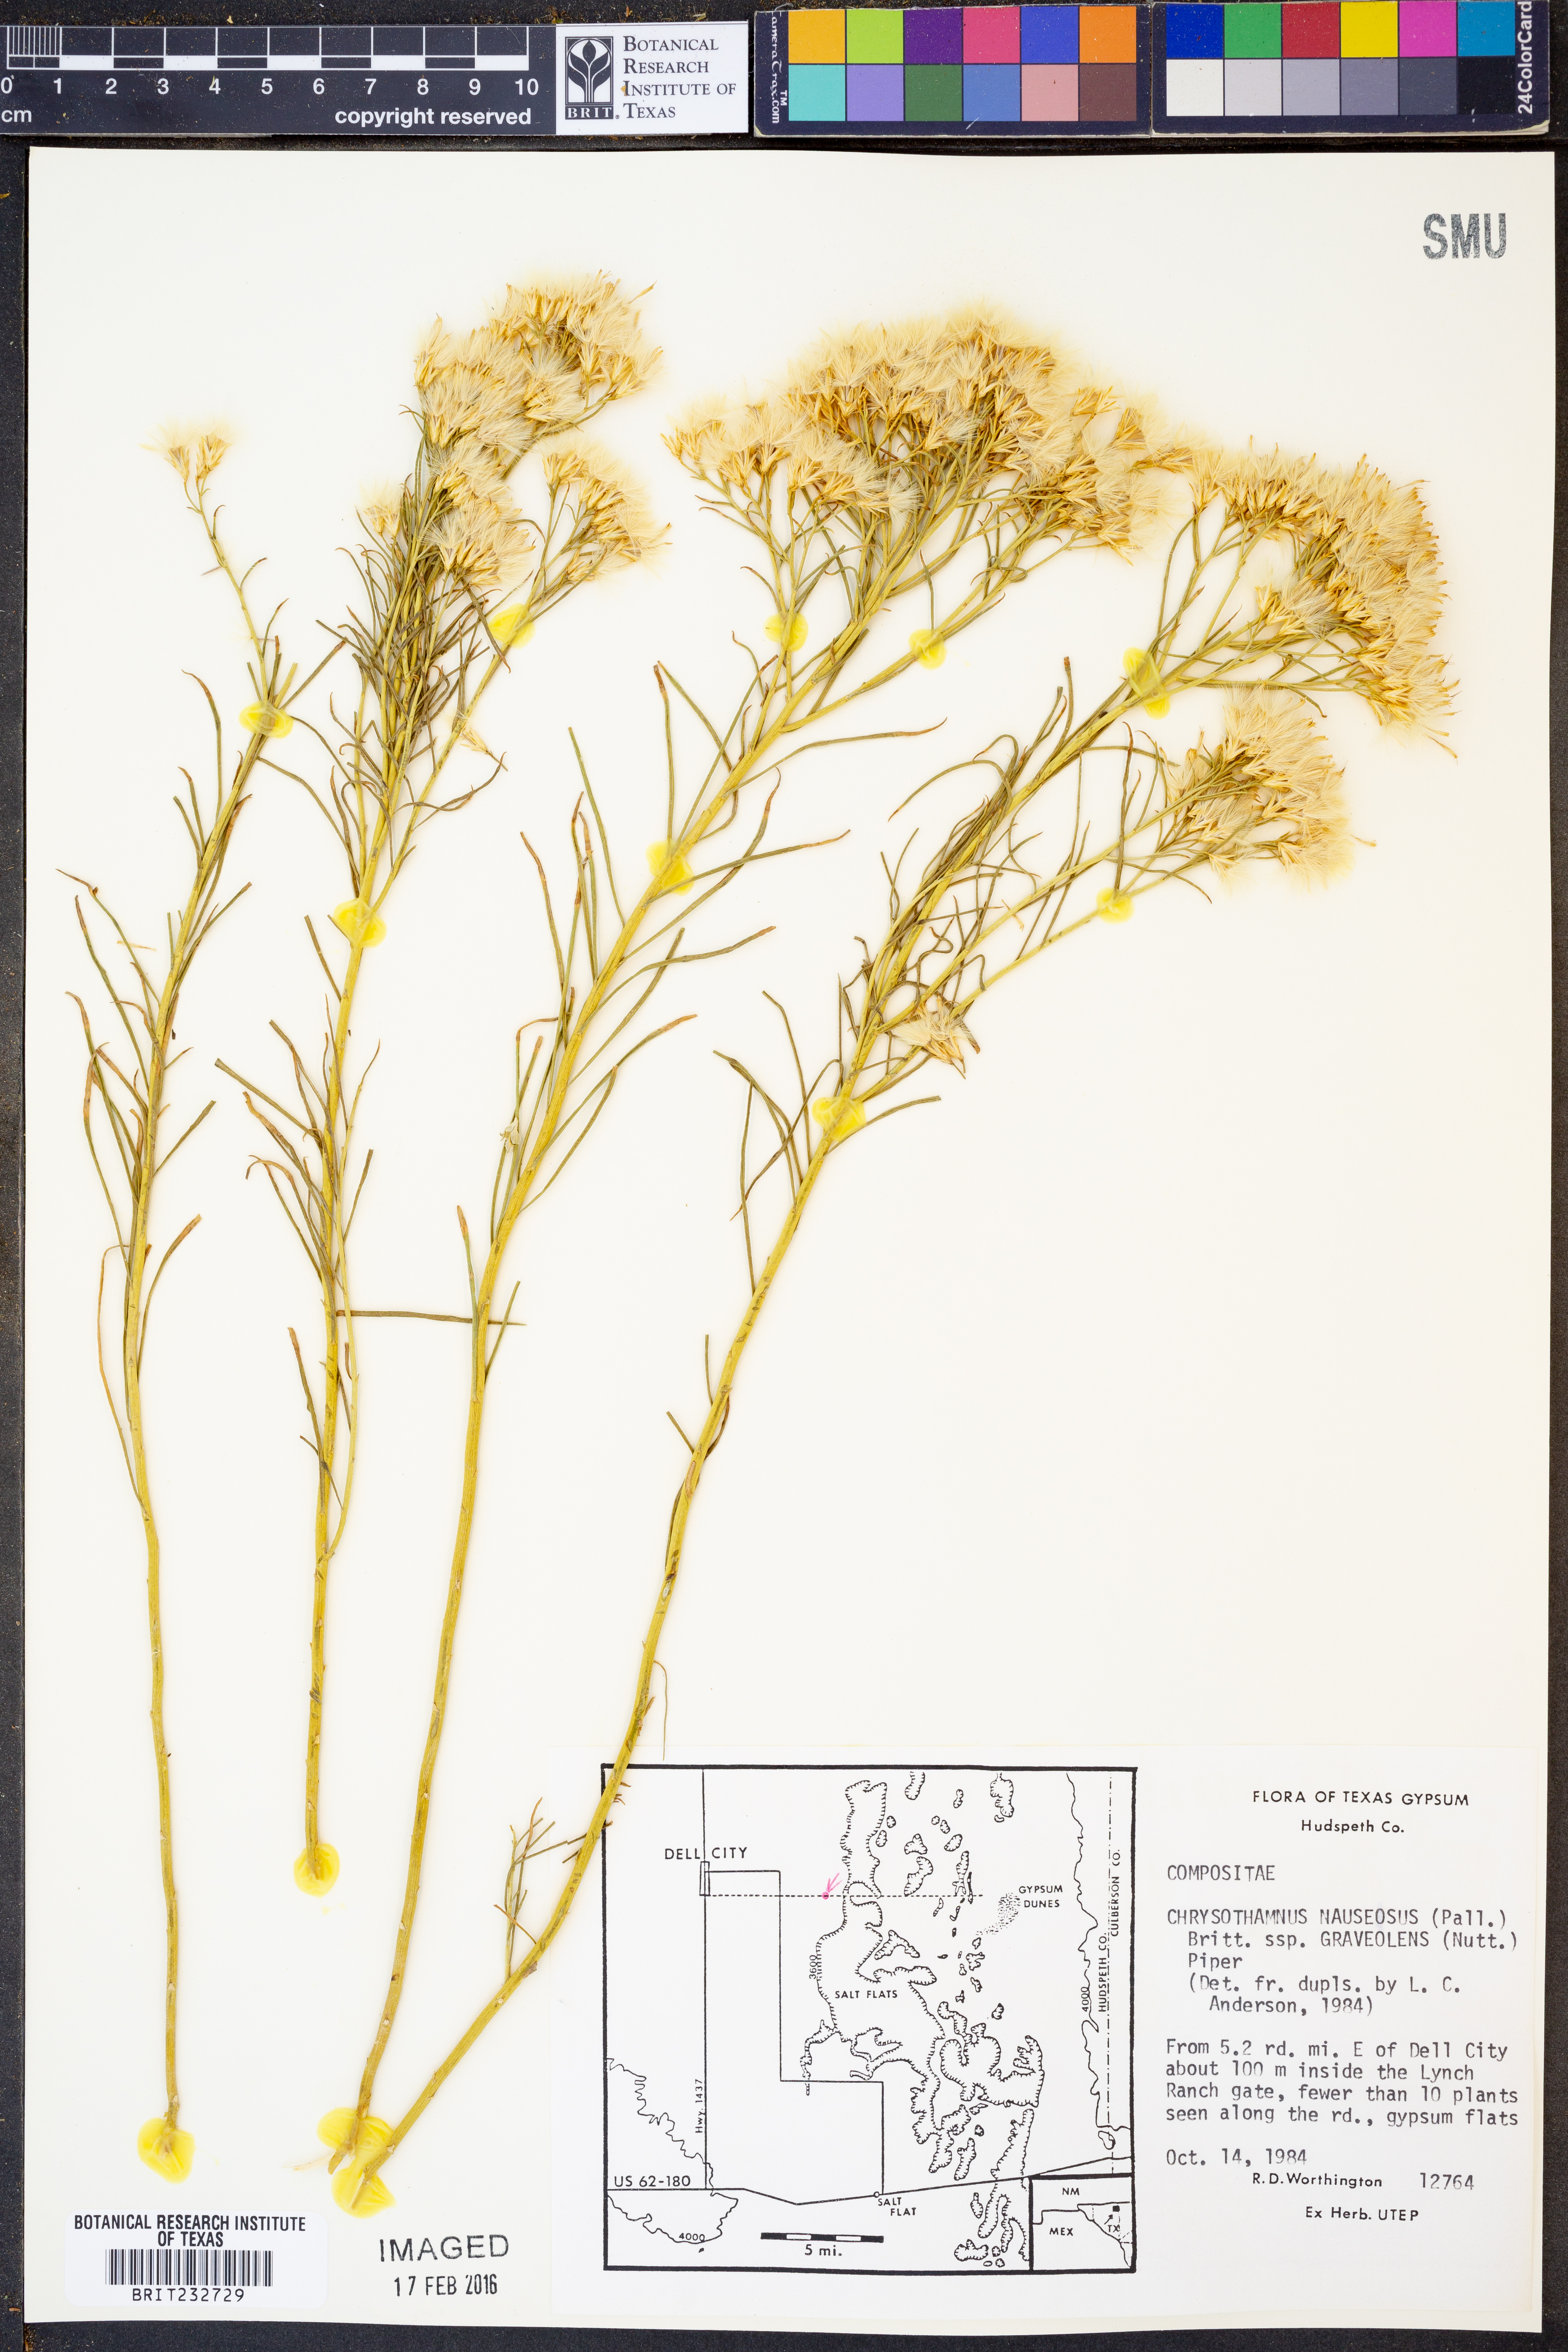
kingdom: Plantae
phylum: Tracheophyta
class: Magnoliopsida
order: Asterales
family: Asteraceae
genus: Ericameria
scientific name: Ericameria nauseosa
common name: Rubber rabbitbrush
